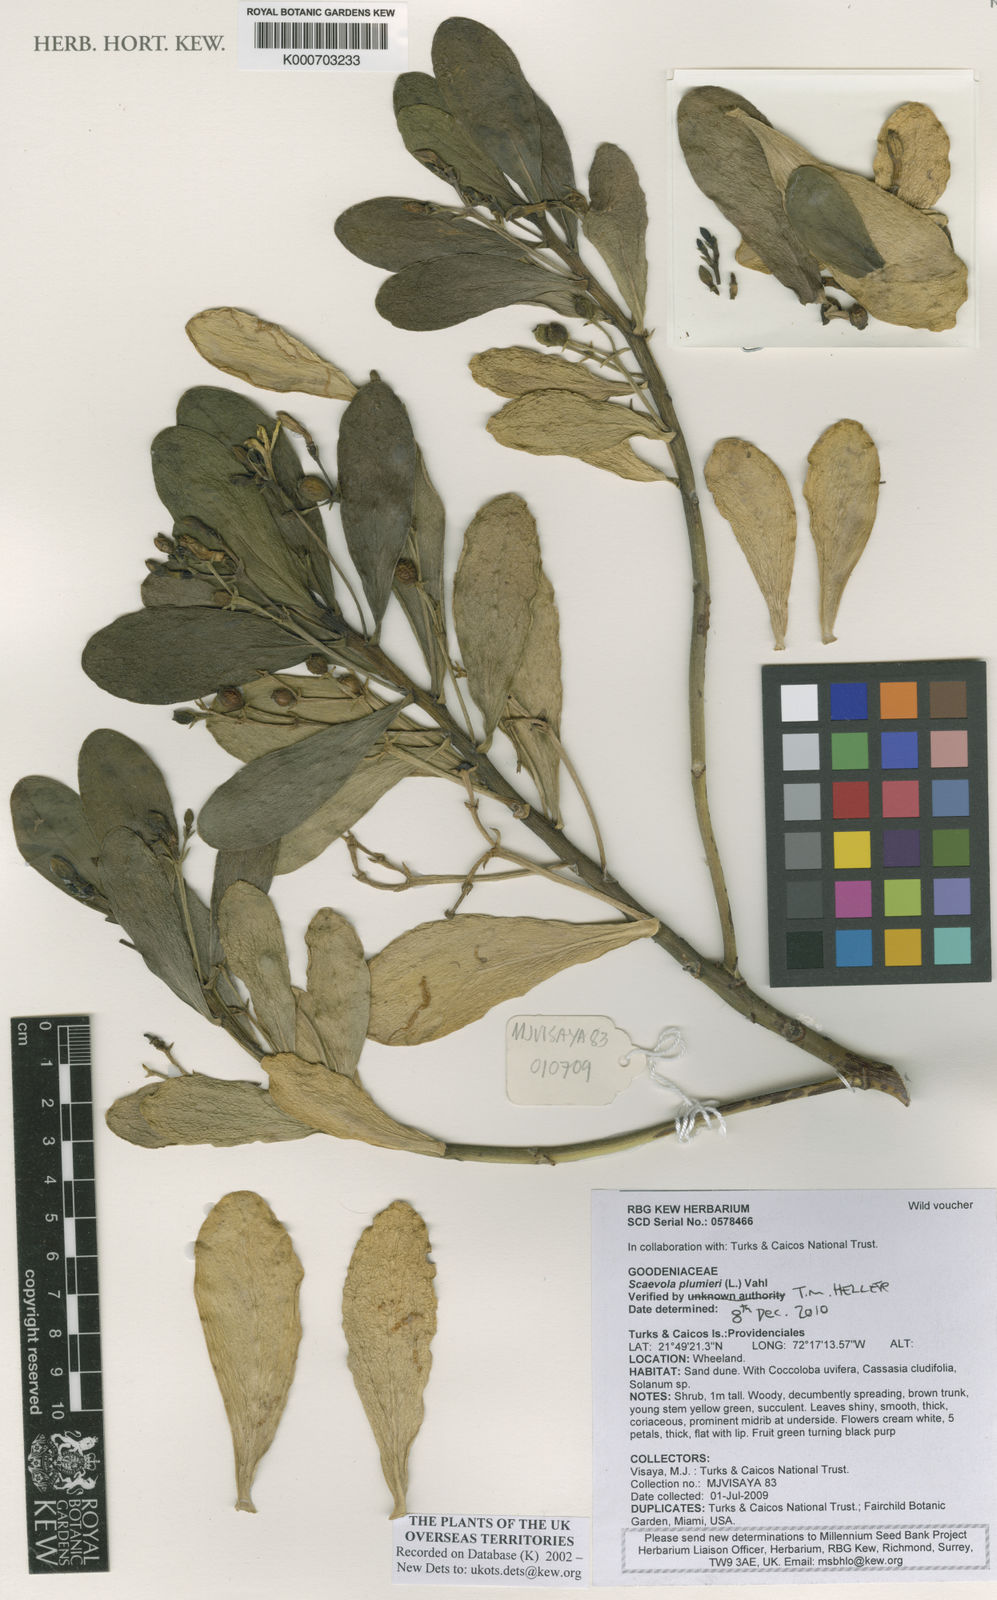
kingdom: Plantae
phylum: Tracheophyta
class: Magnoliopsida
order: Asterales
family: Goodeniaceae
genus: Scaevola
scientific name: Scaevola plumieri
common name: Gull feed
